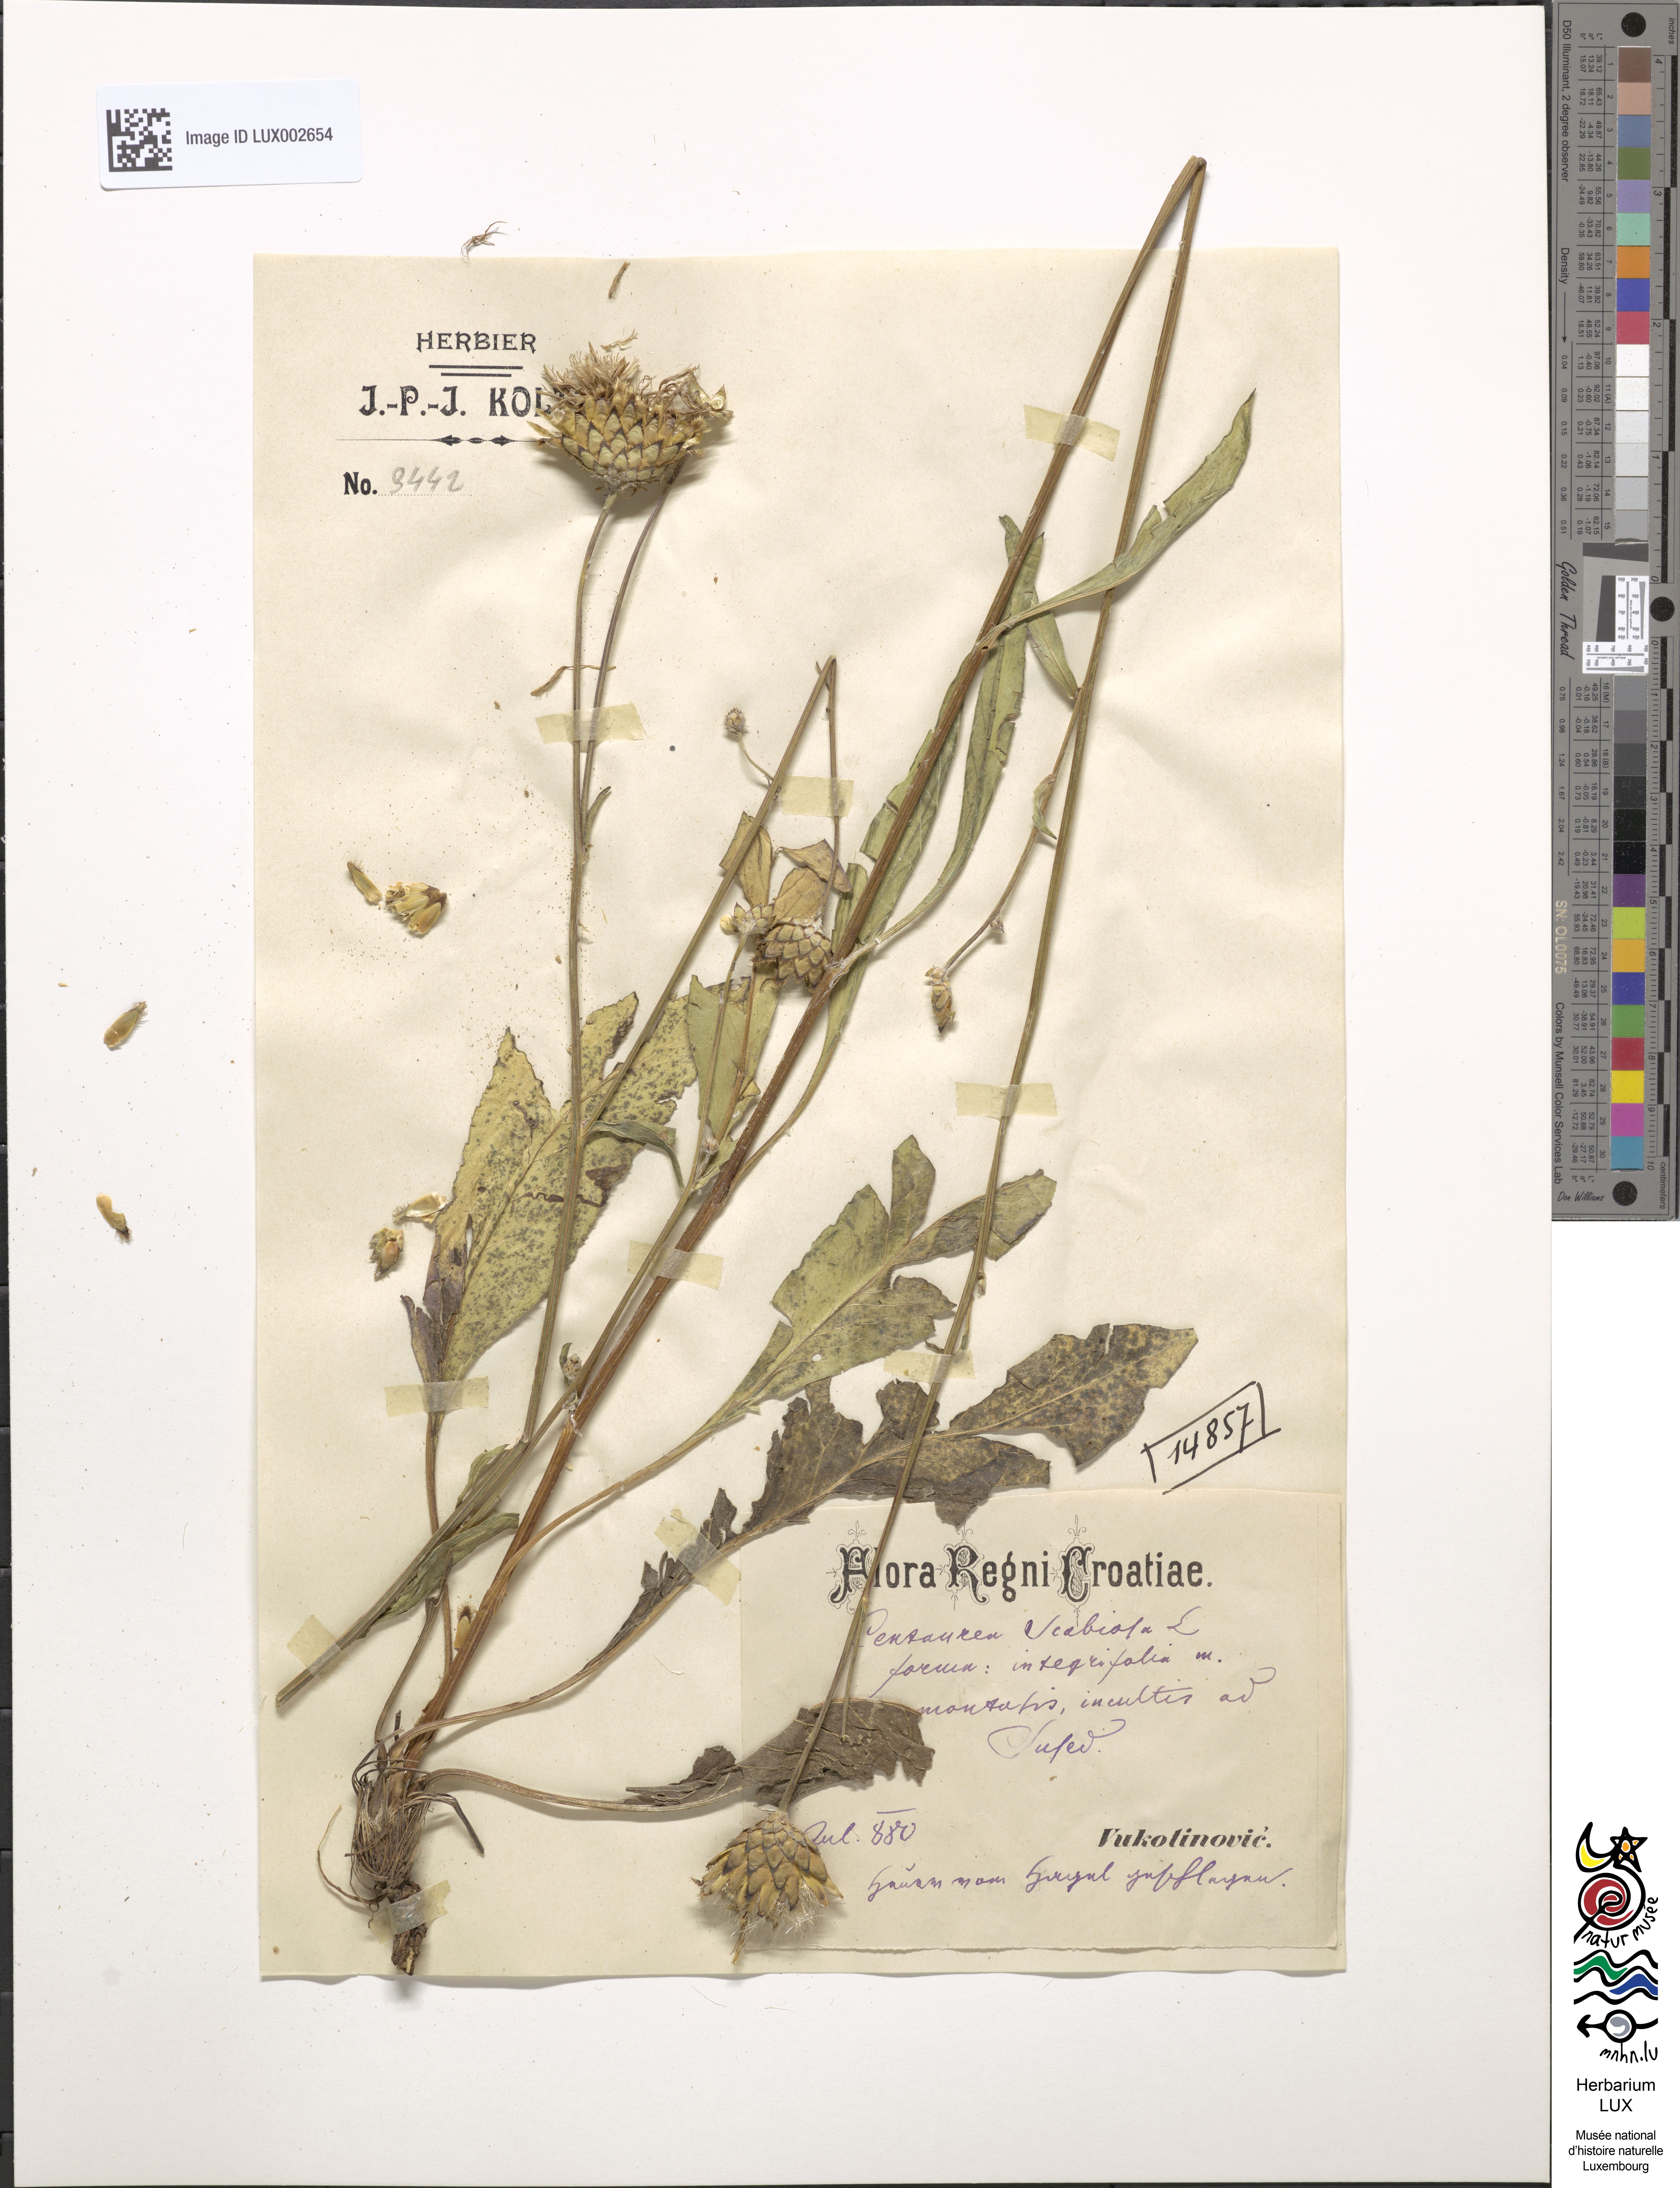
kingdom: Plantae
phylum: Tracheophyta
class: Magnoliopsida
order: Asterales
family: Asteraceae
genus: Centaurea
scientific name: Centaurea scabiosa
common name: Greater knapweed
